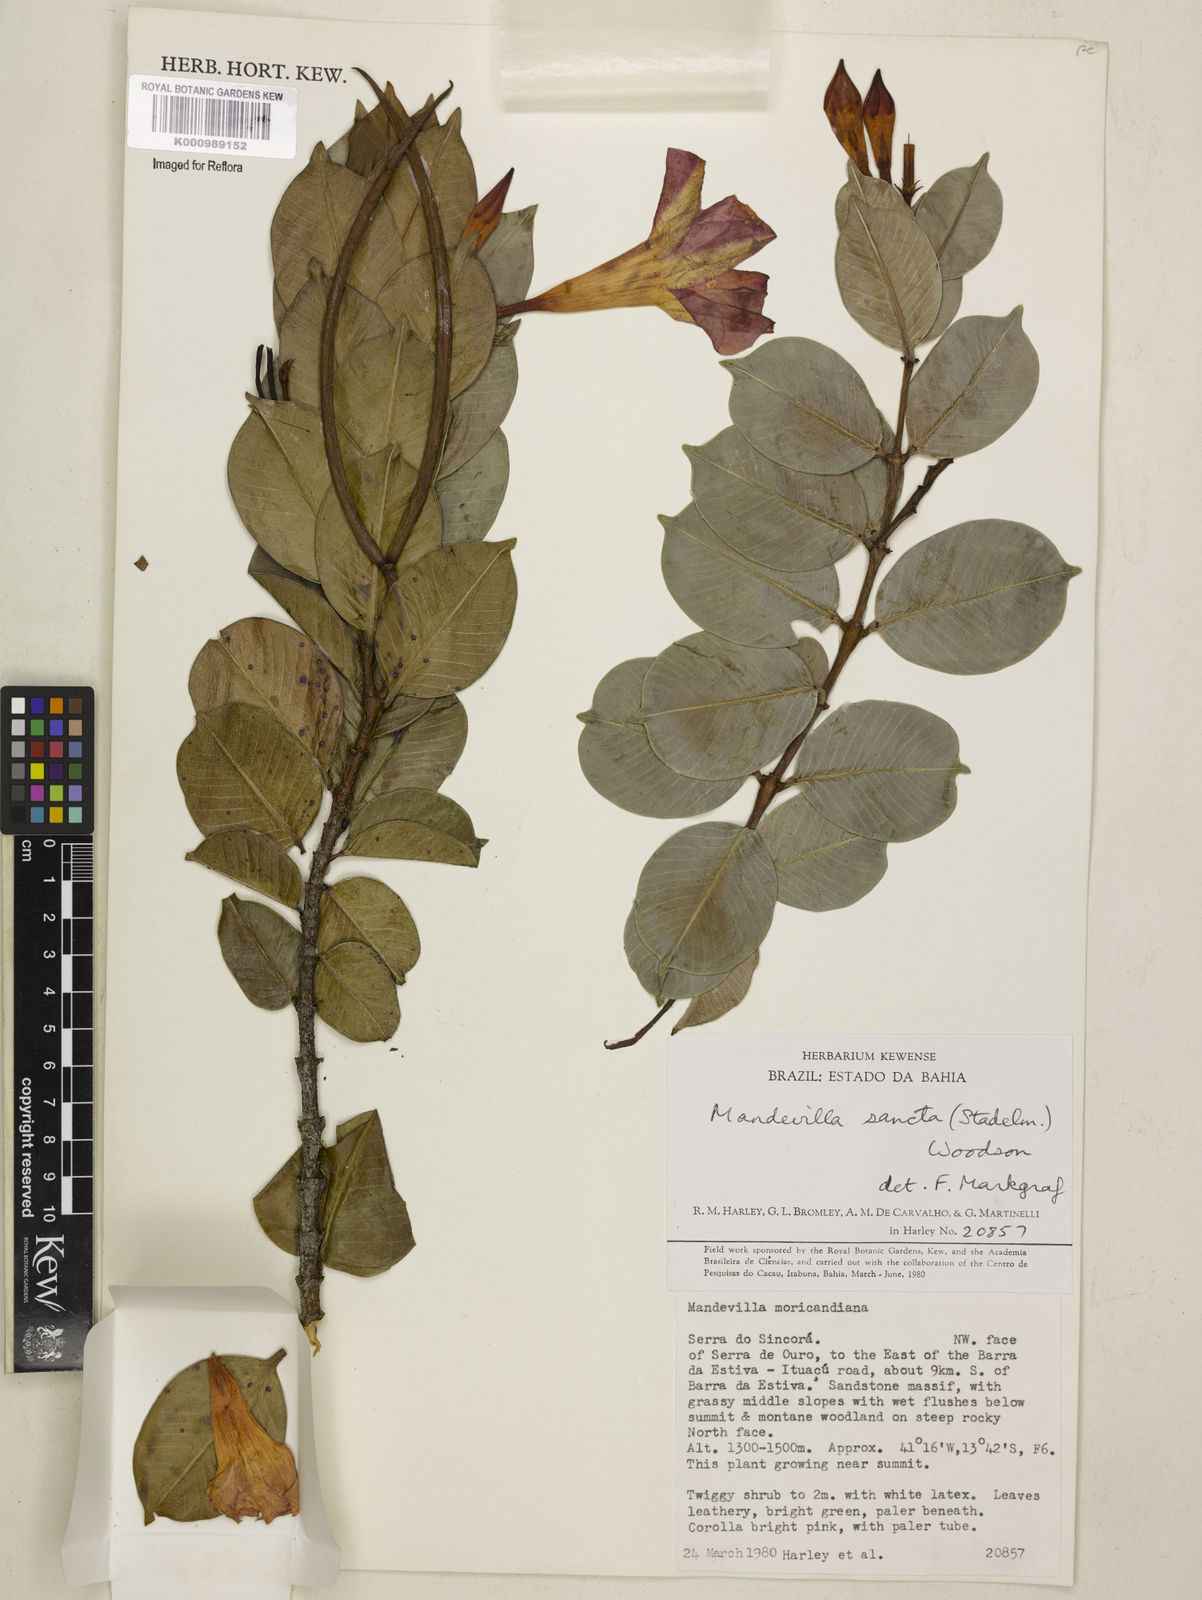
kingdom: Plantae
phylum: Tracheophyta
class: Magnoliopsida
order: Gentianales
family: Apocynaceae
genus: Mandevilla
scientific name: Mandevilla sancta
